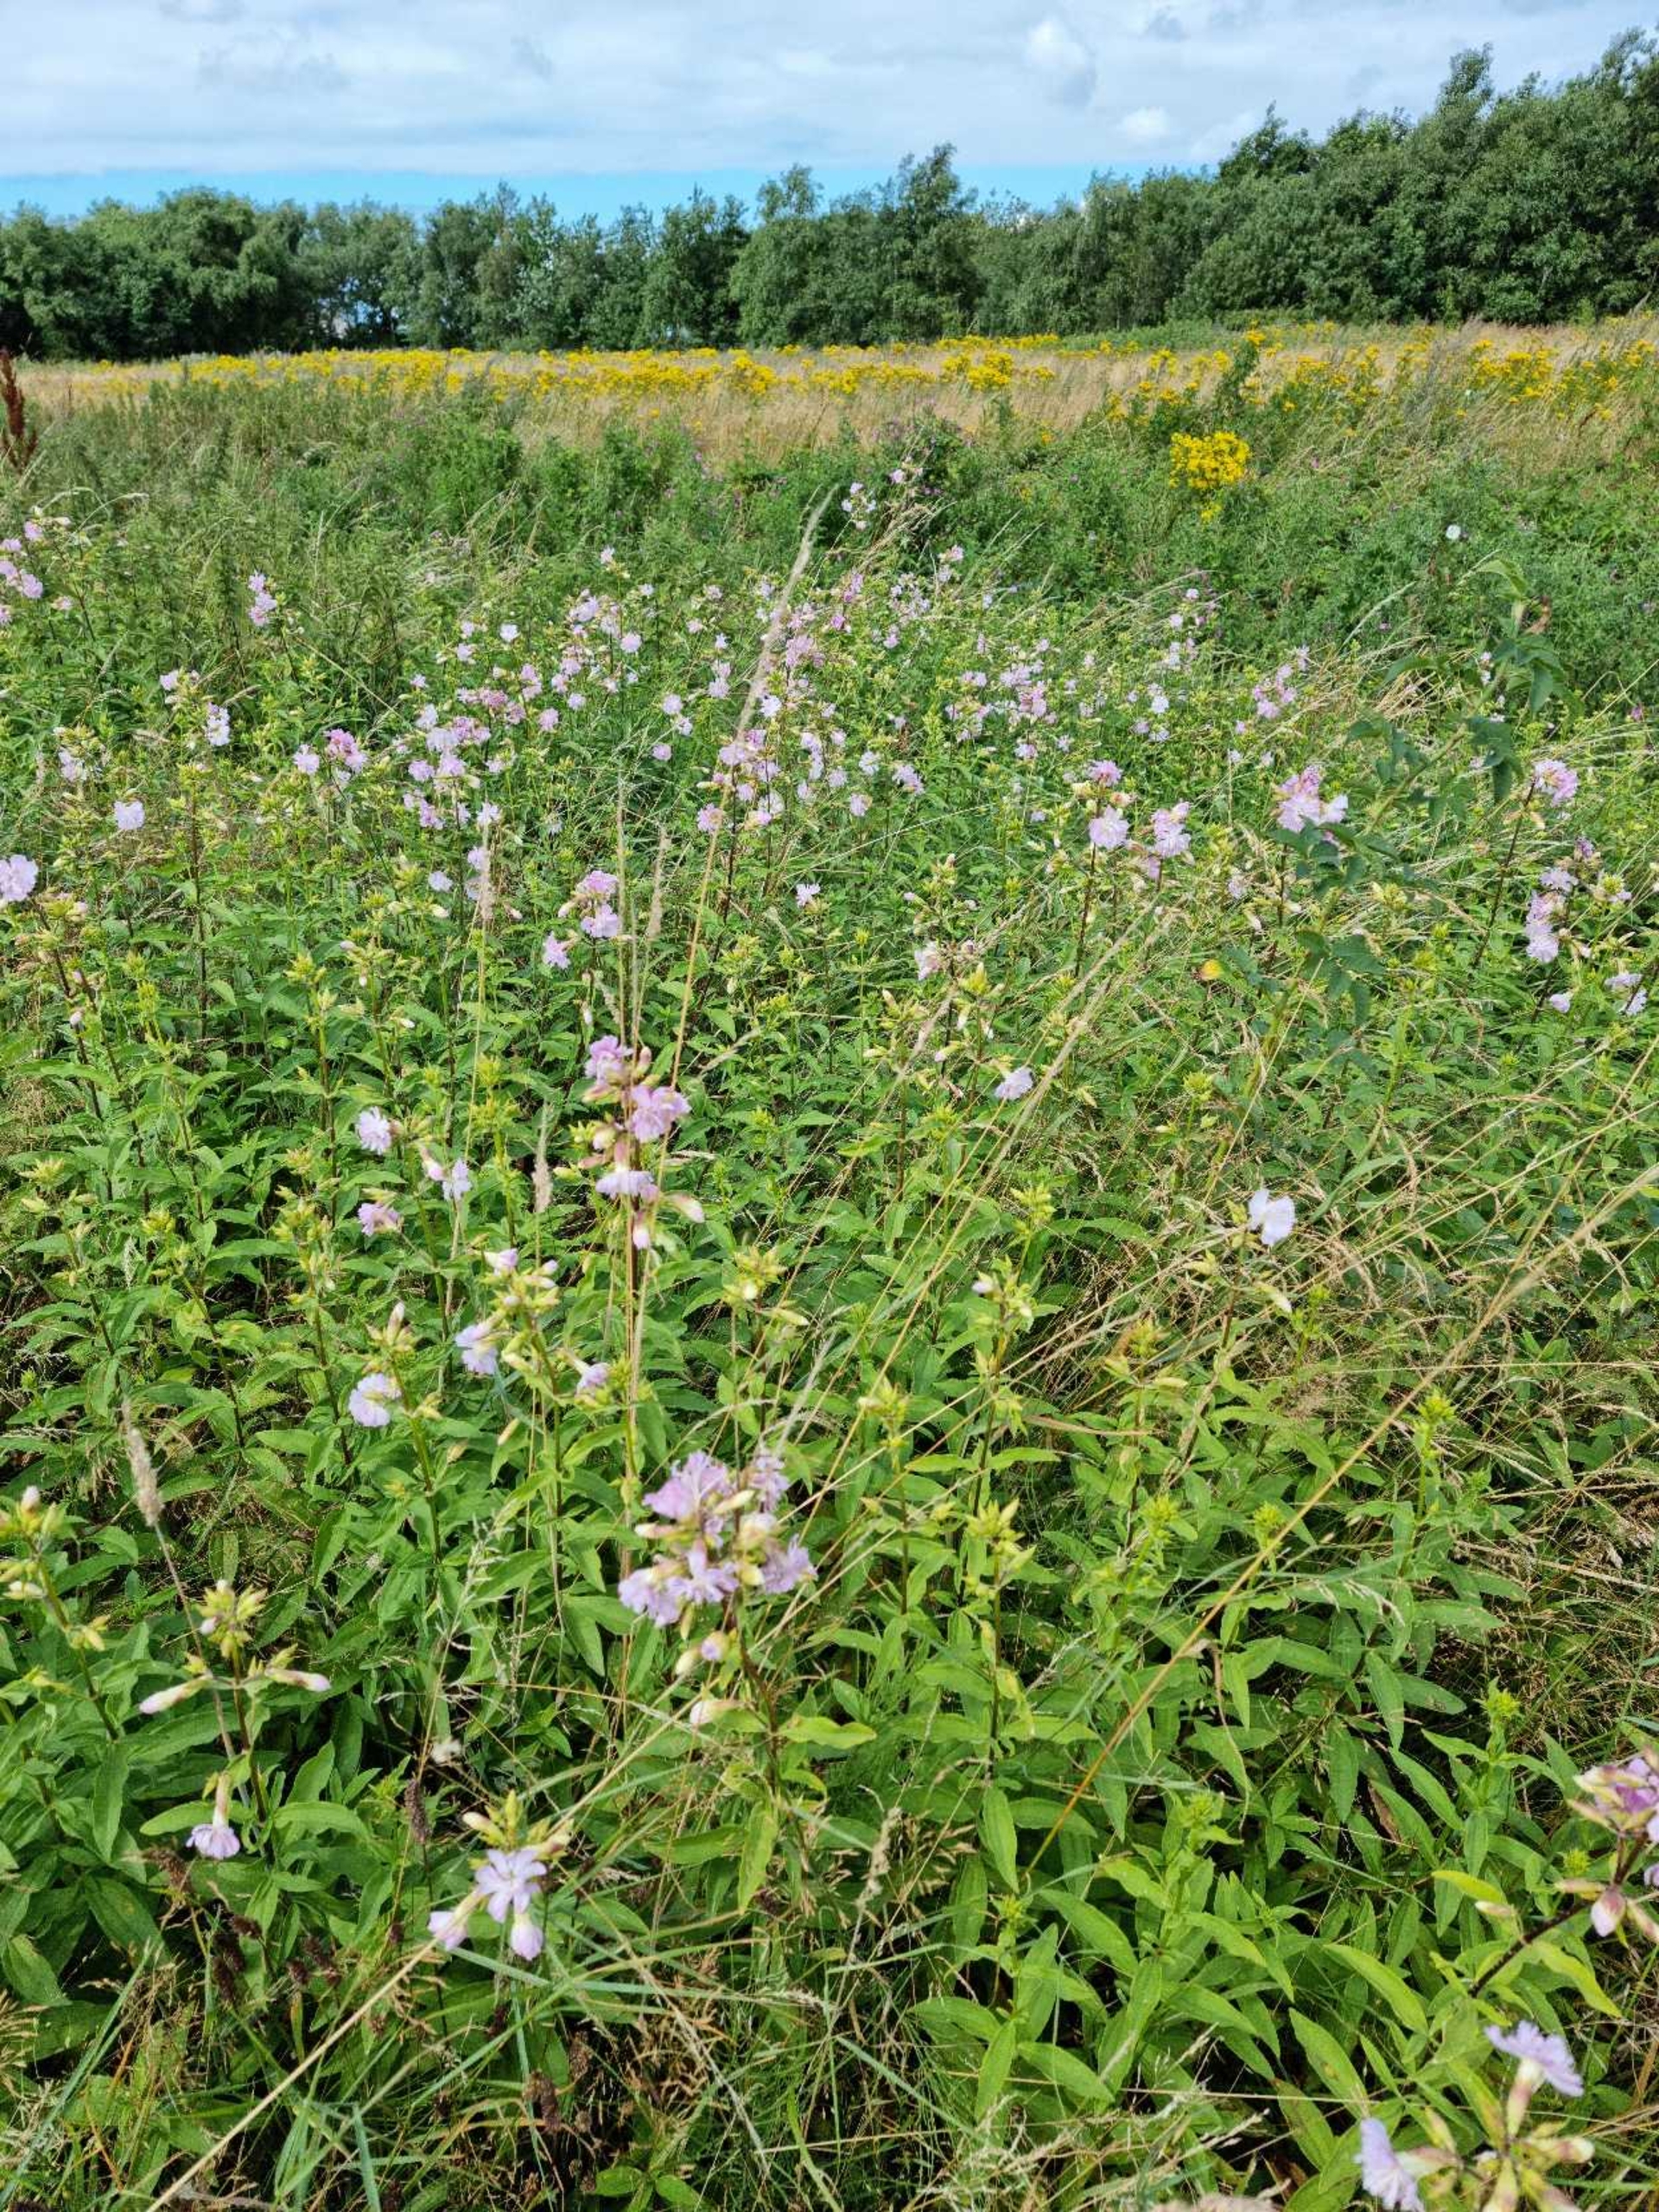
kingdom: Plantae
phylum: Tracheophyta
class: Magnoliopsida
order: Caryophyllales
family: Caryophyllaceae
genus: Saponaria
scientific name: Saponaria officinalis
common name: Sæbeurt
